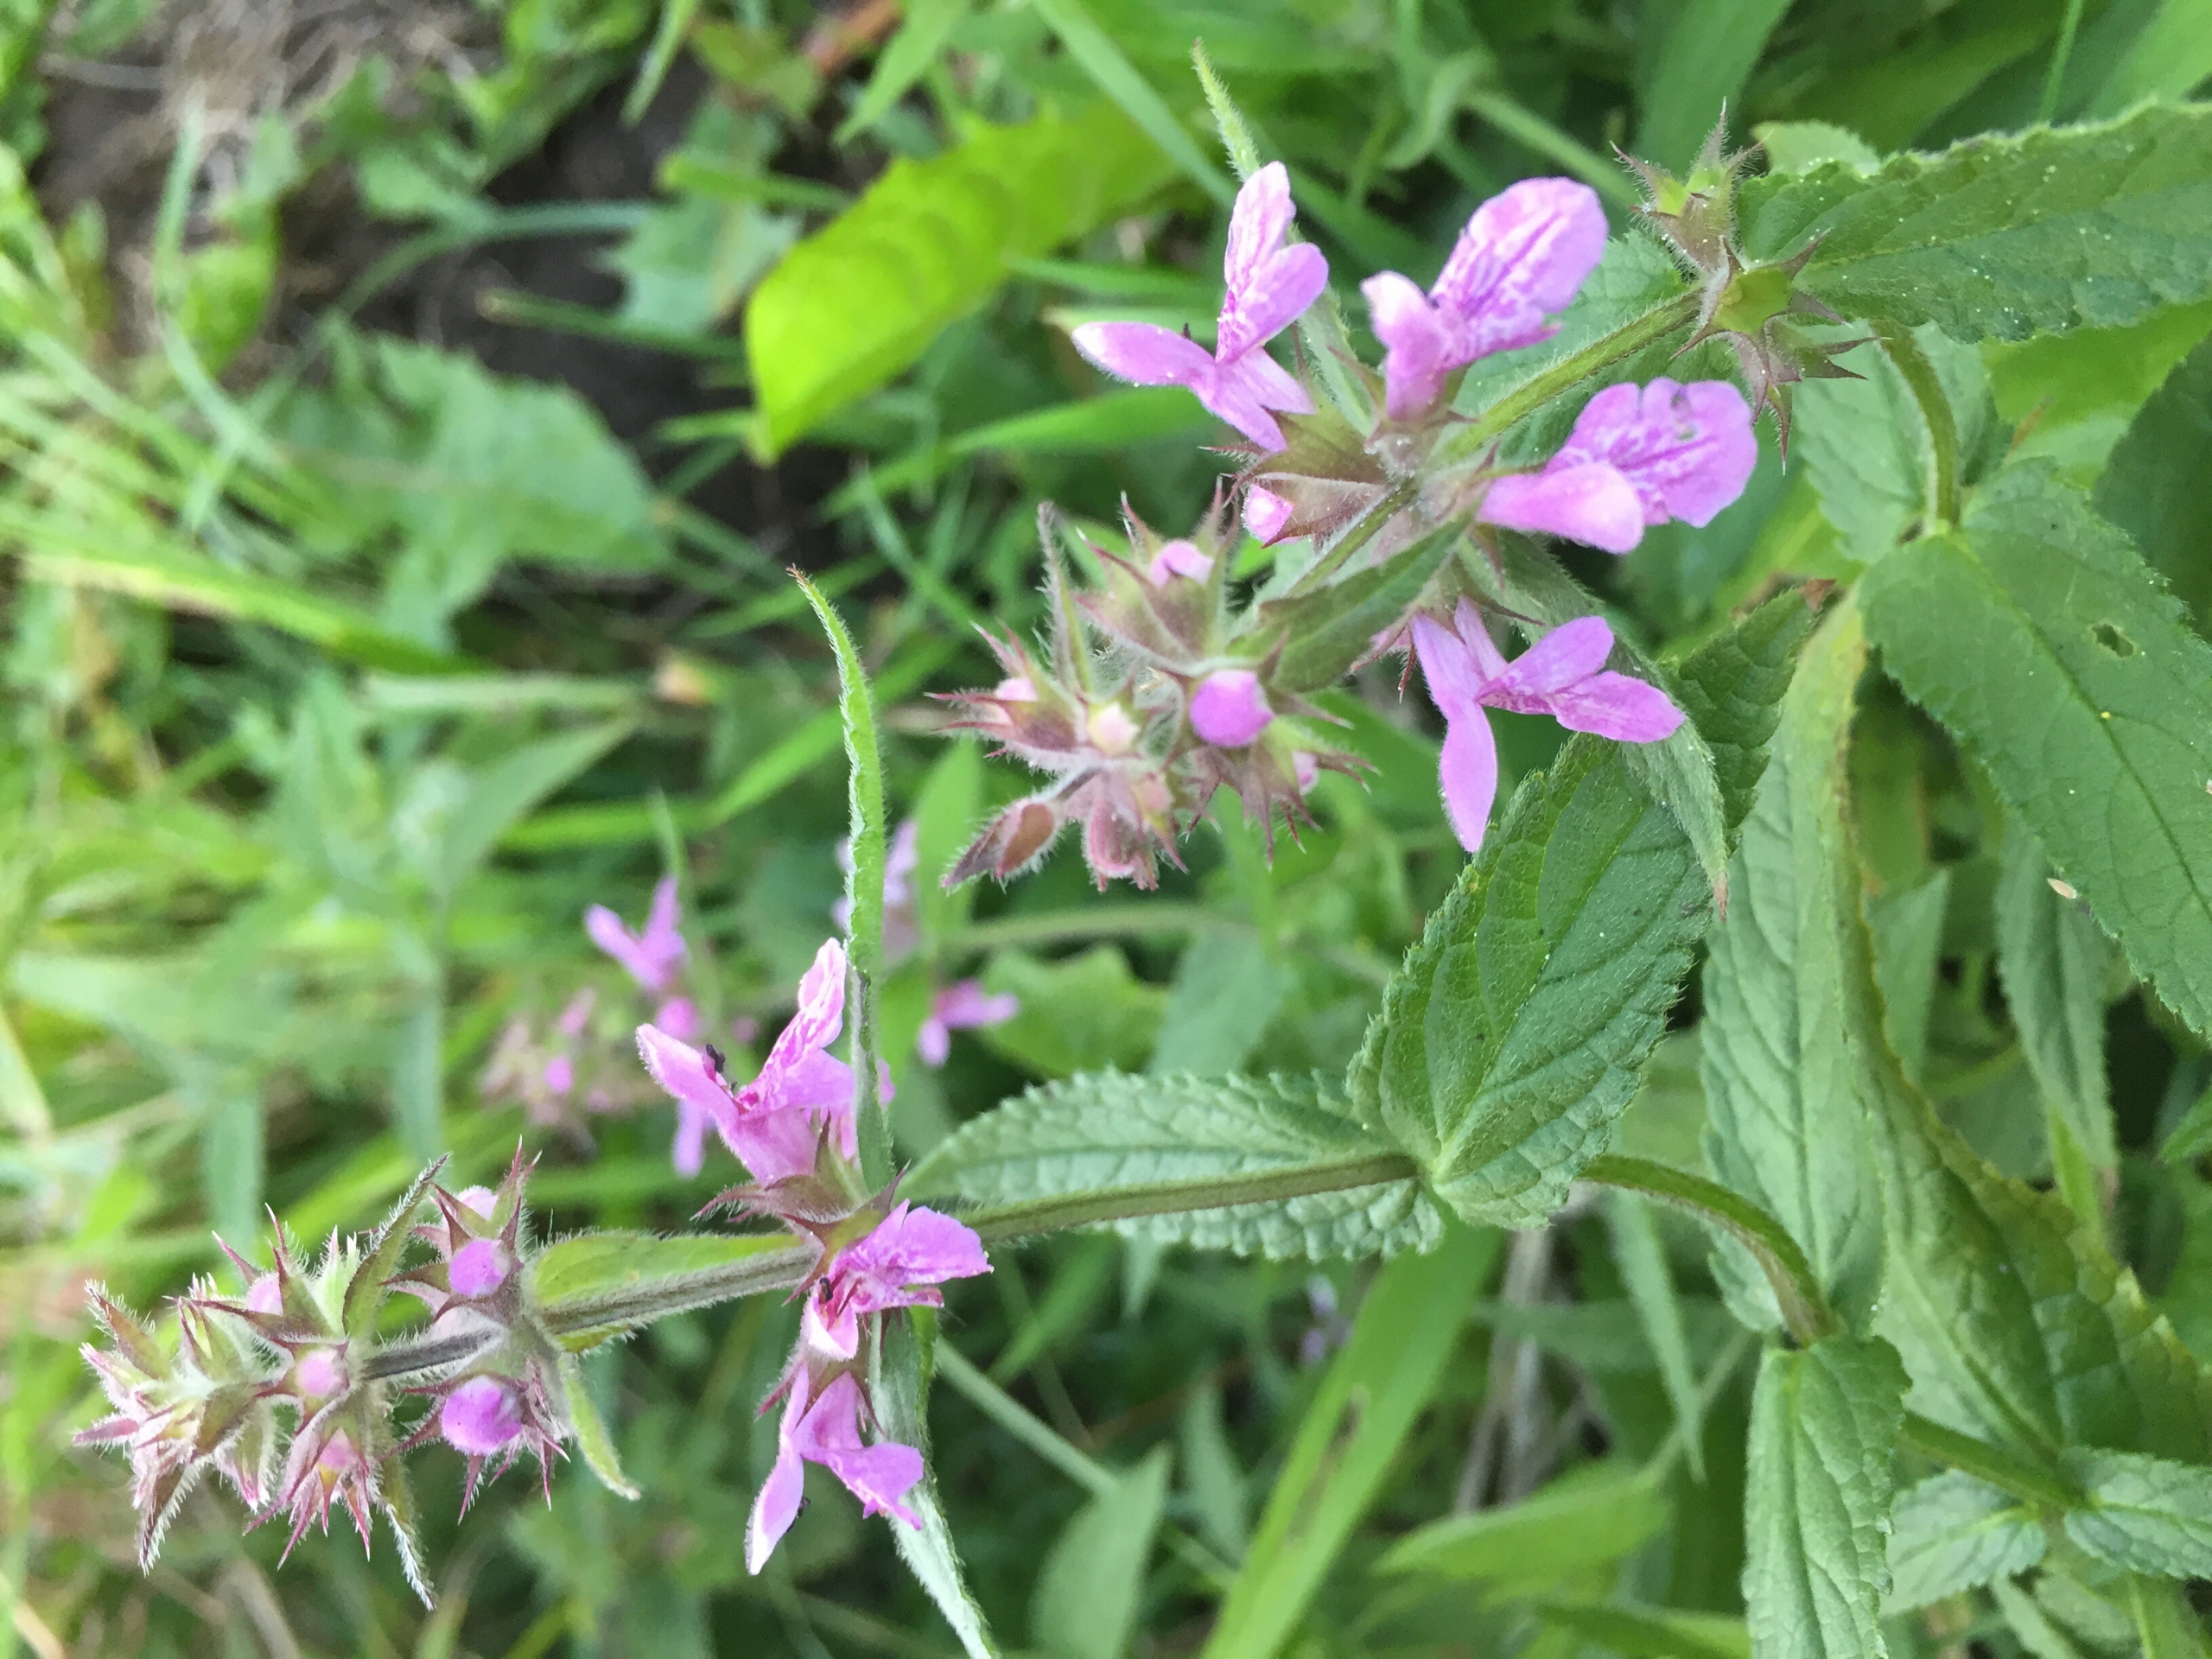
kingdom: Plantae
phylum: Tracheophyta
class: Magnoliopsida
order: Lamiales
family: Lamiaceae
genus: Stachys
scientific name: Stachys palustris
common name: Kær-galtetand
